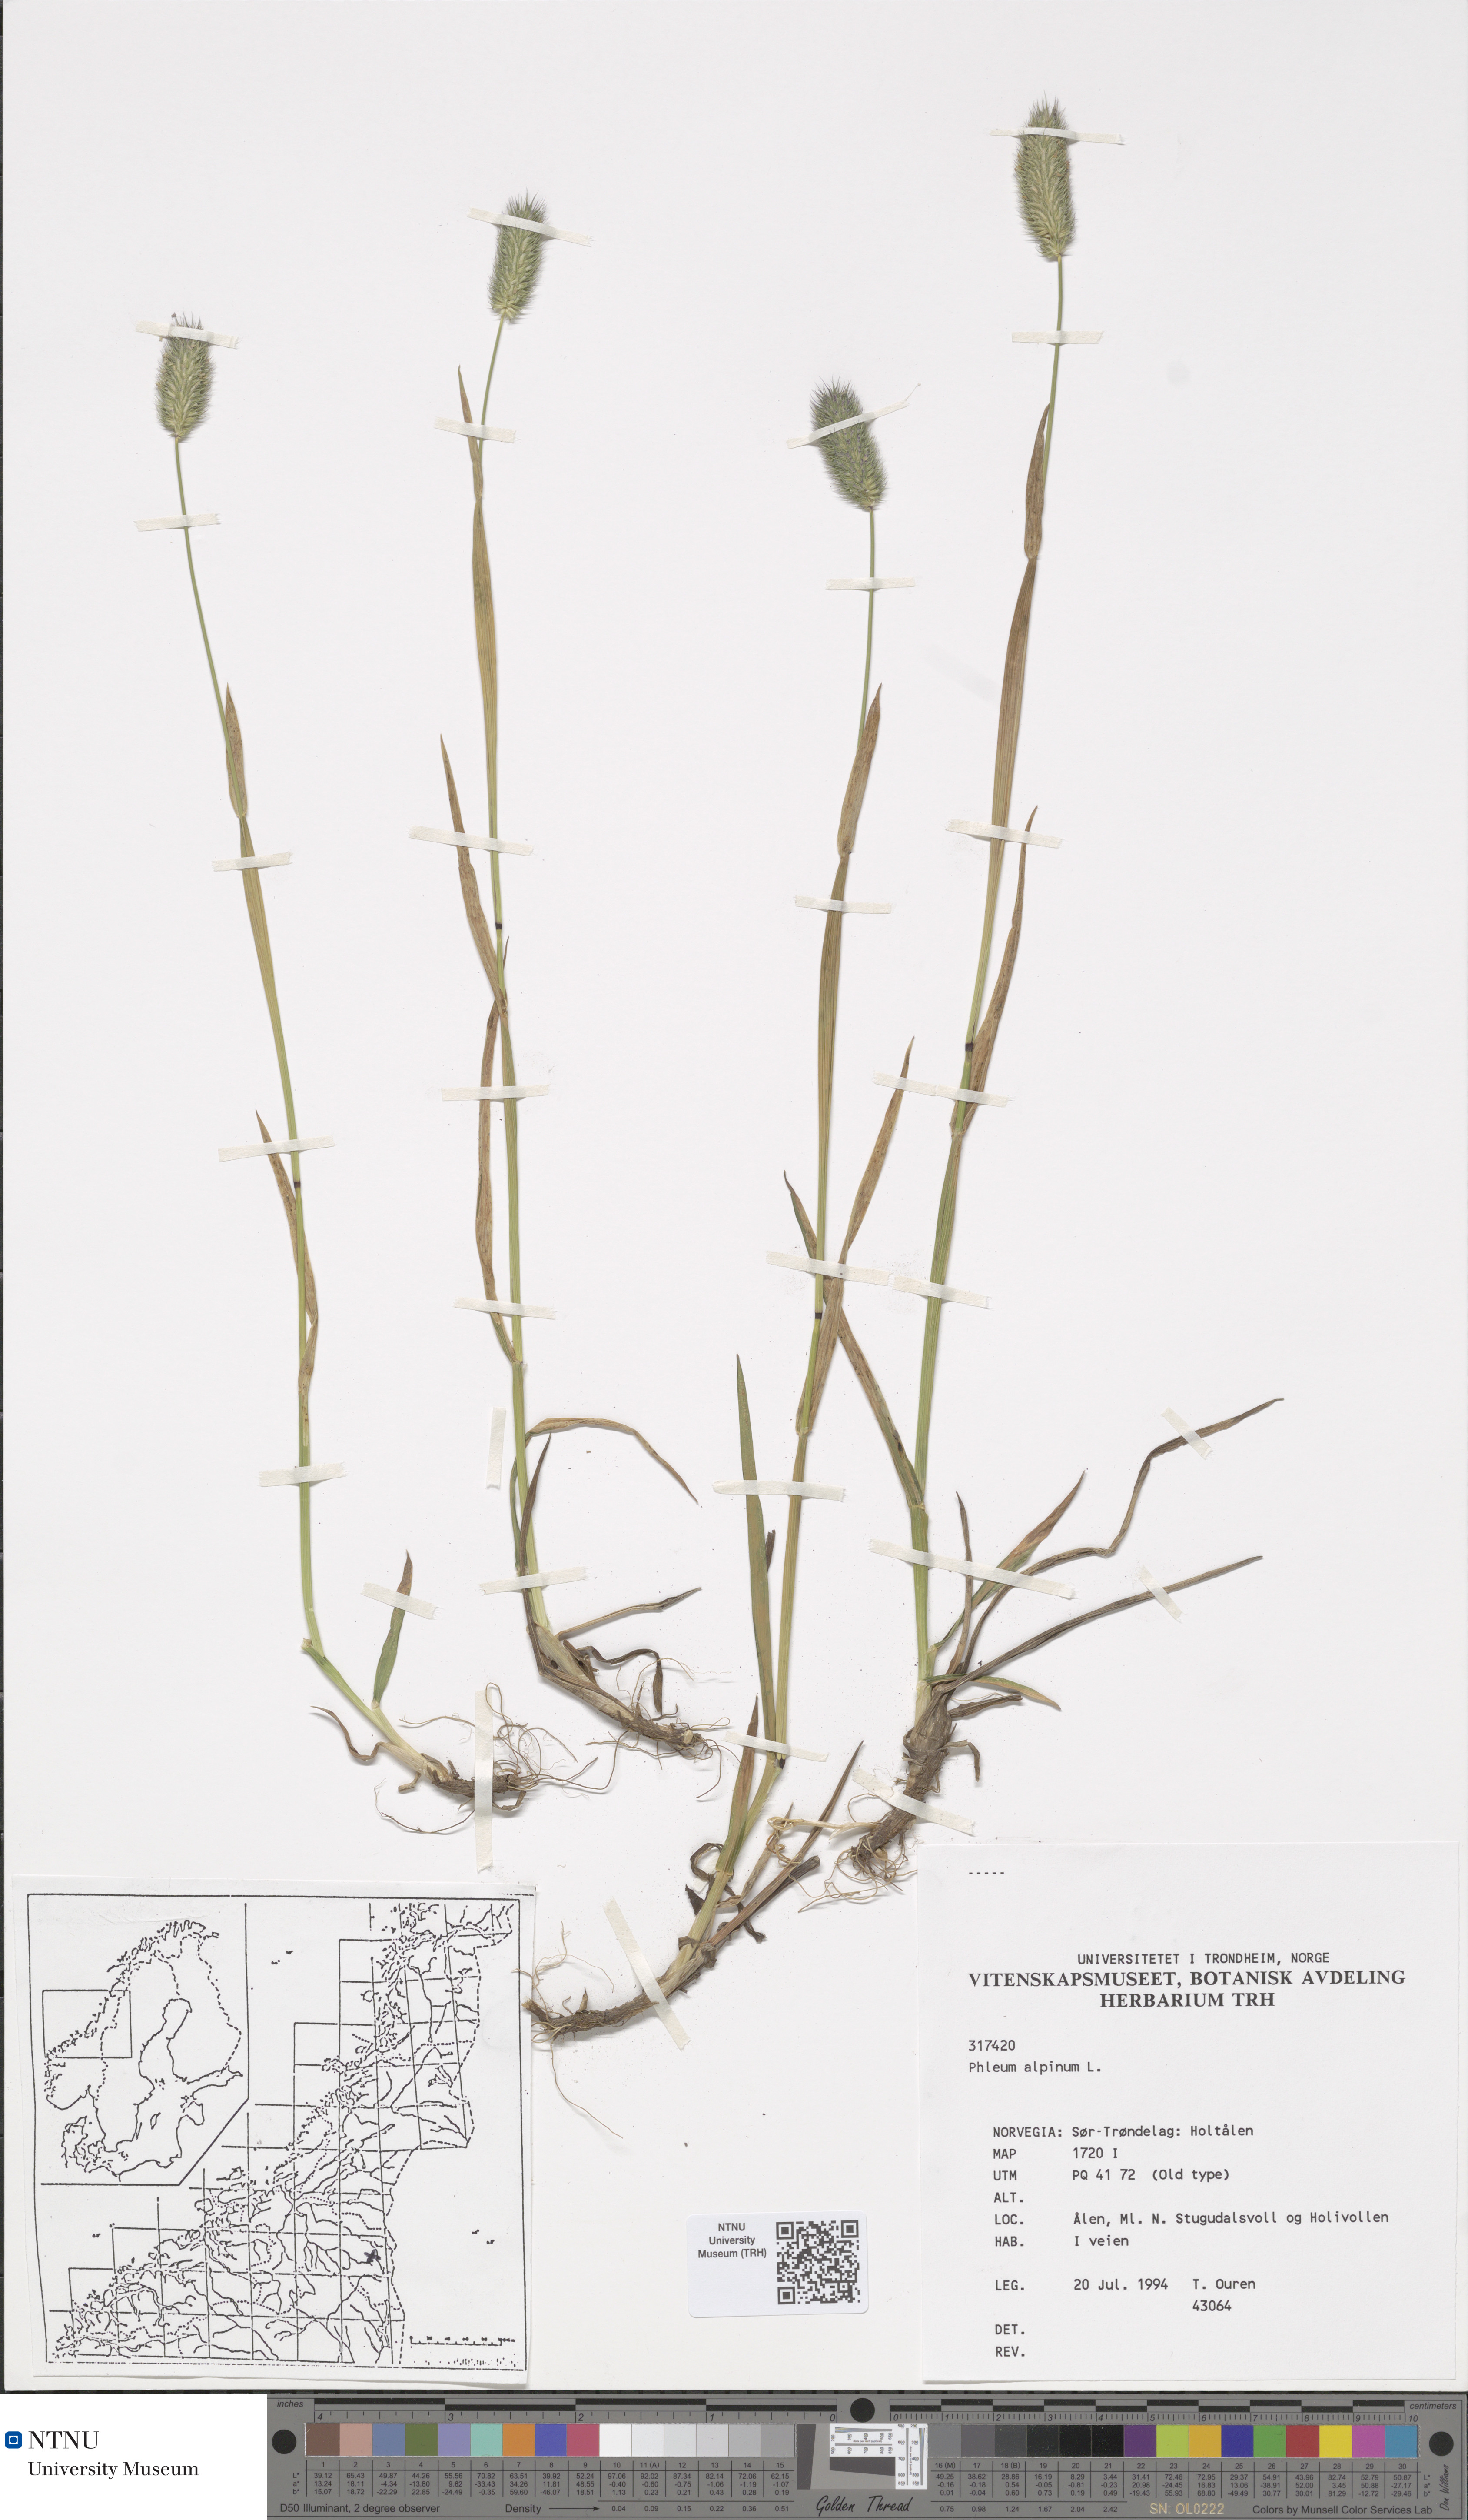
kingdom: Plantae
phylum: Tracheophyta
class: Liliopsida
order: Poales
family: Poaceae
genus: Phleum
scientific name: Phleum alpinum
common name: Alpine cat's-tail
